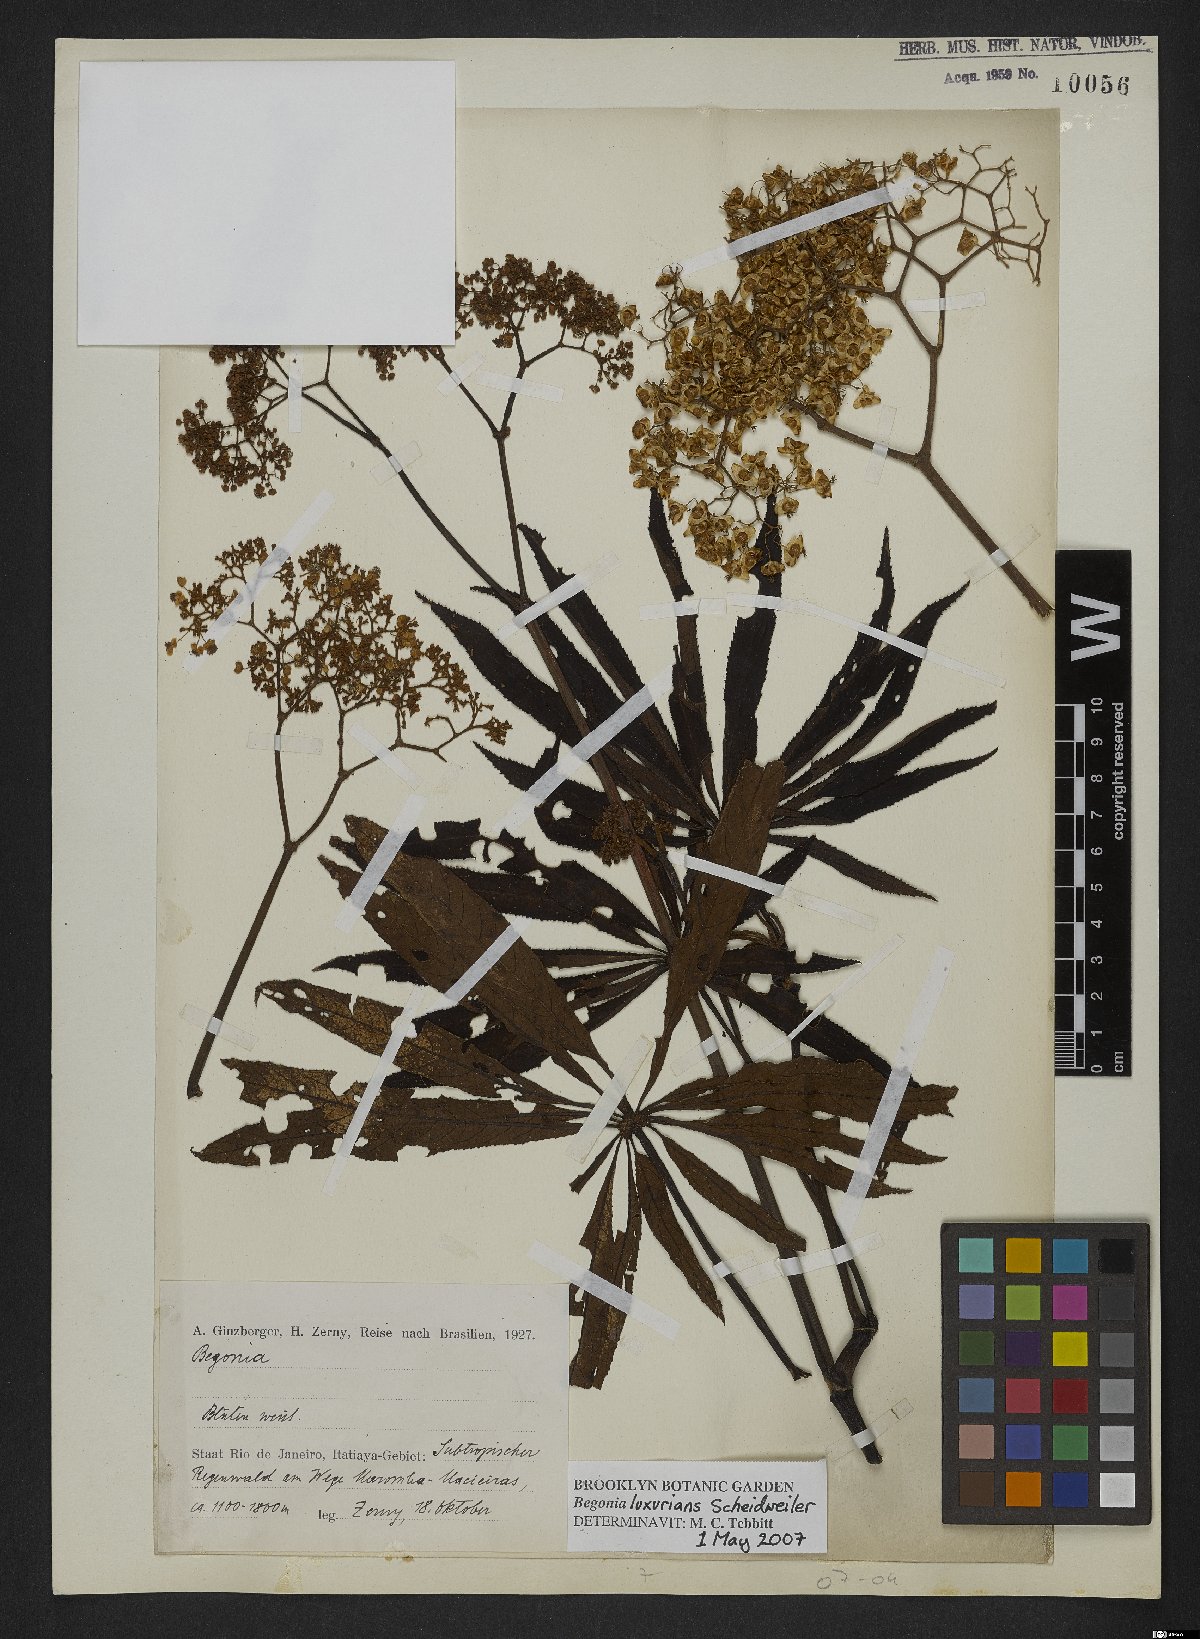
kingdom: Plantae
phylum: Tracheophyta
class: Magnoliopsida
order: Cucurbitales
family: Begoniaceae
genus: Begonia
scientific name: Begonia luxurians
